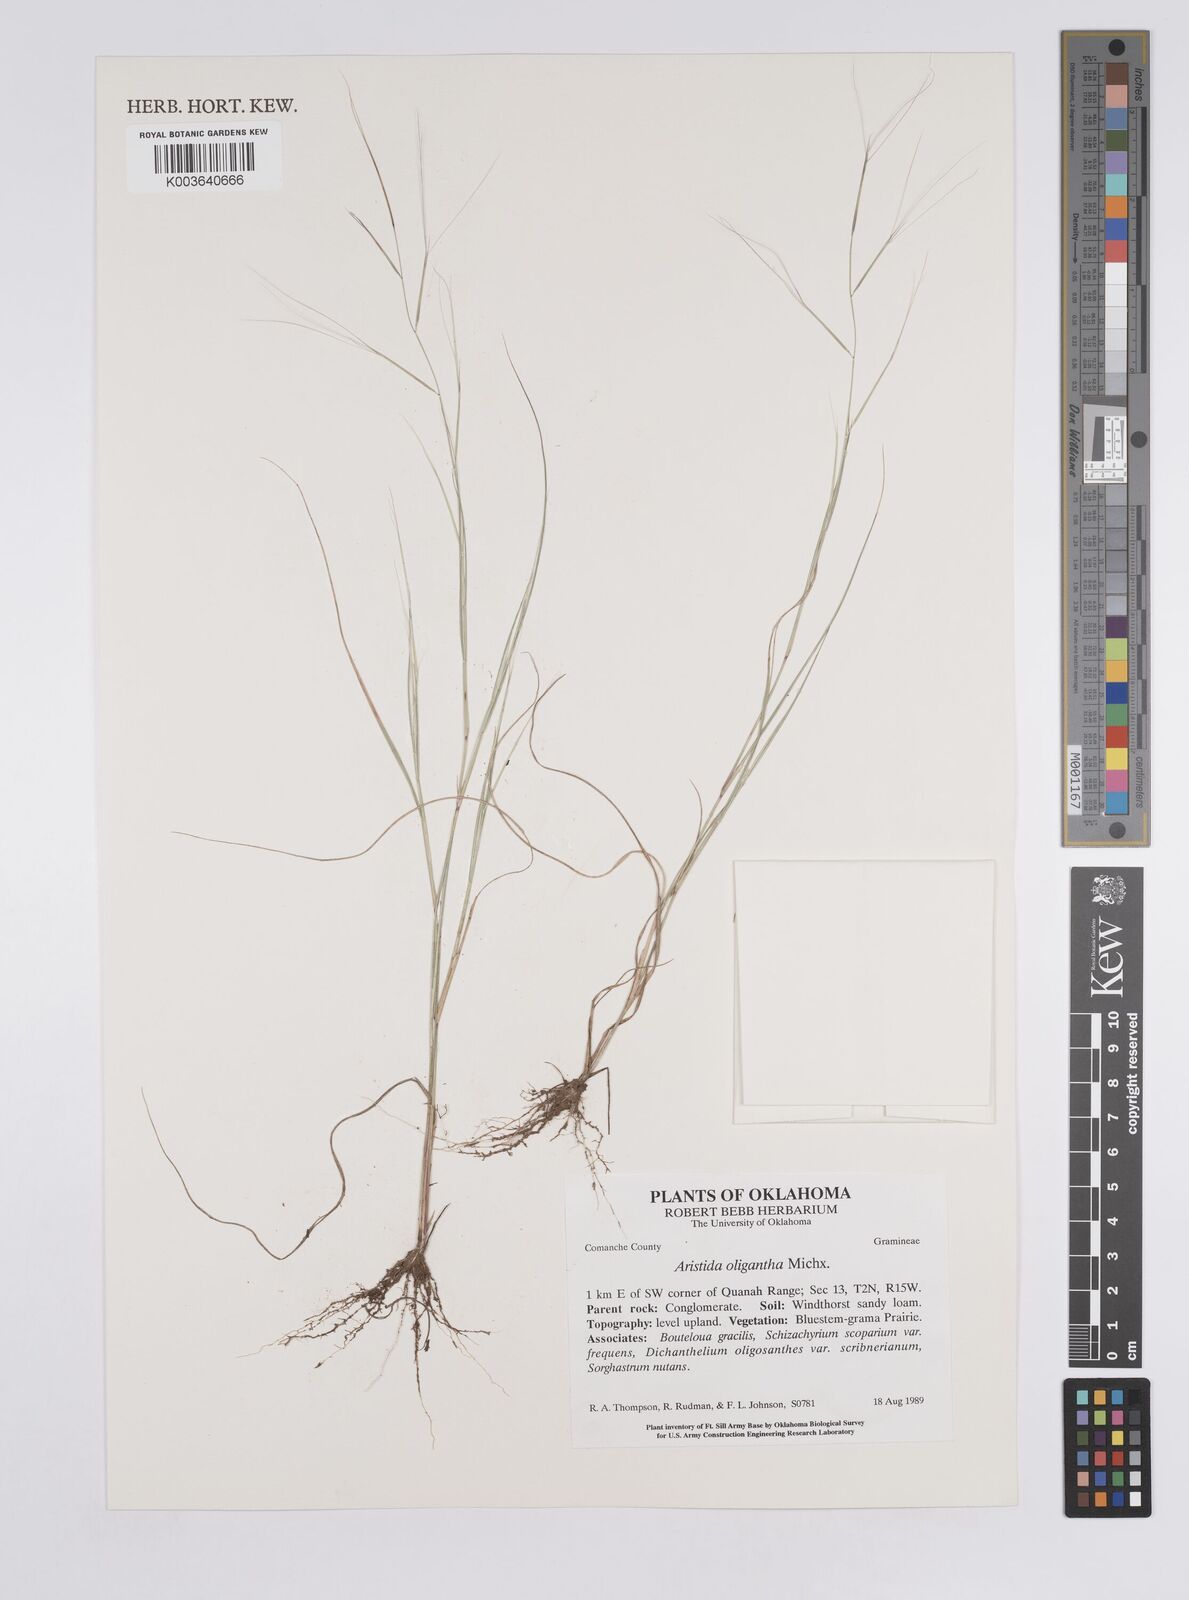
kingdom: Plantae
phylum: Tracheophyta
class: Liliopsida
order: Poales
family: Poaceae
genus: Aristida
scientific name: Aristida oligantha
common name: Few-flowered aristida
